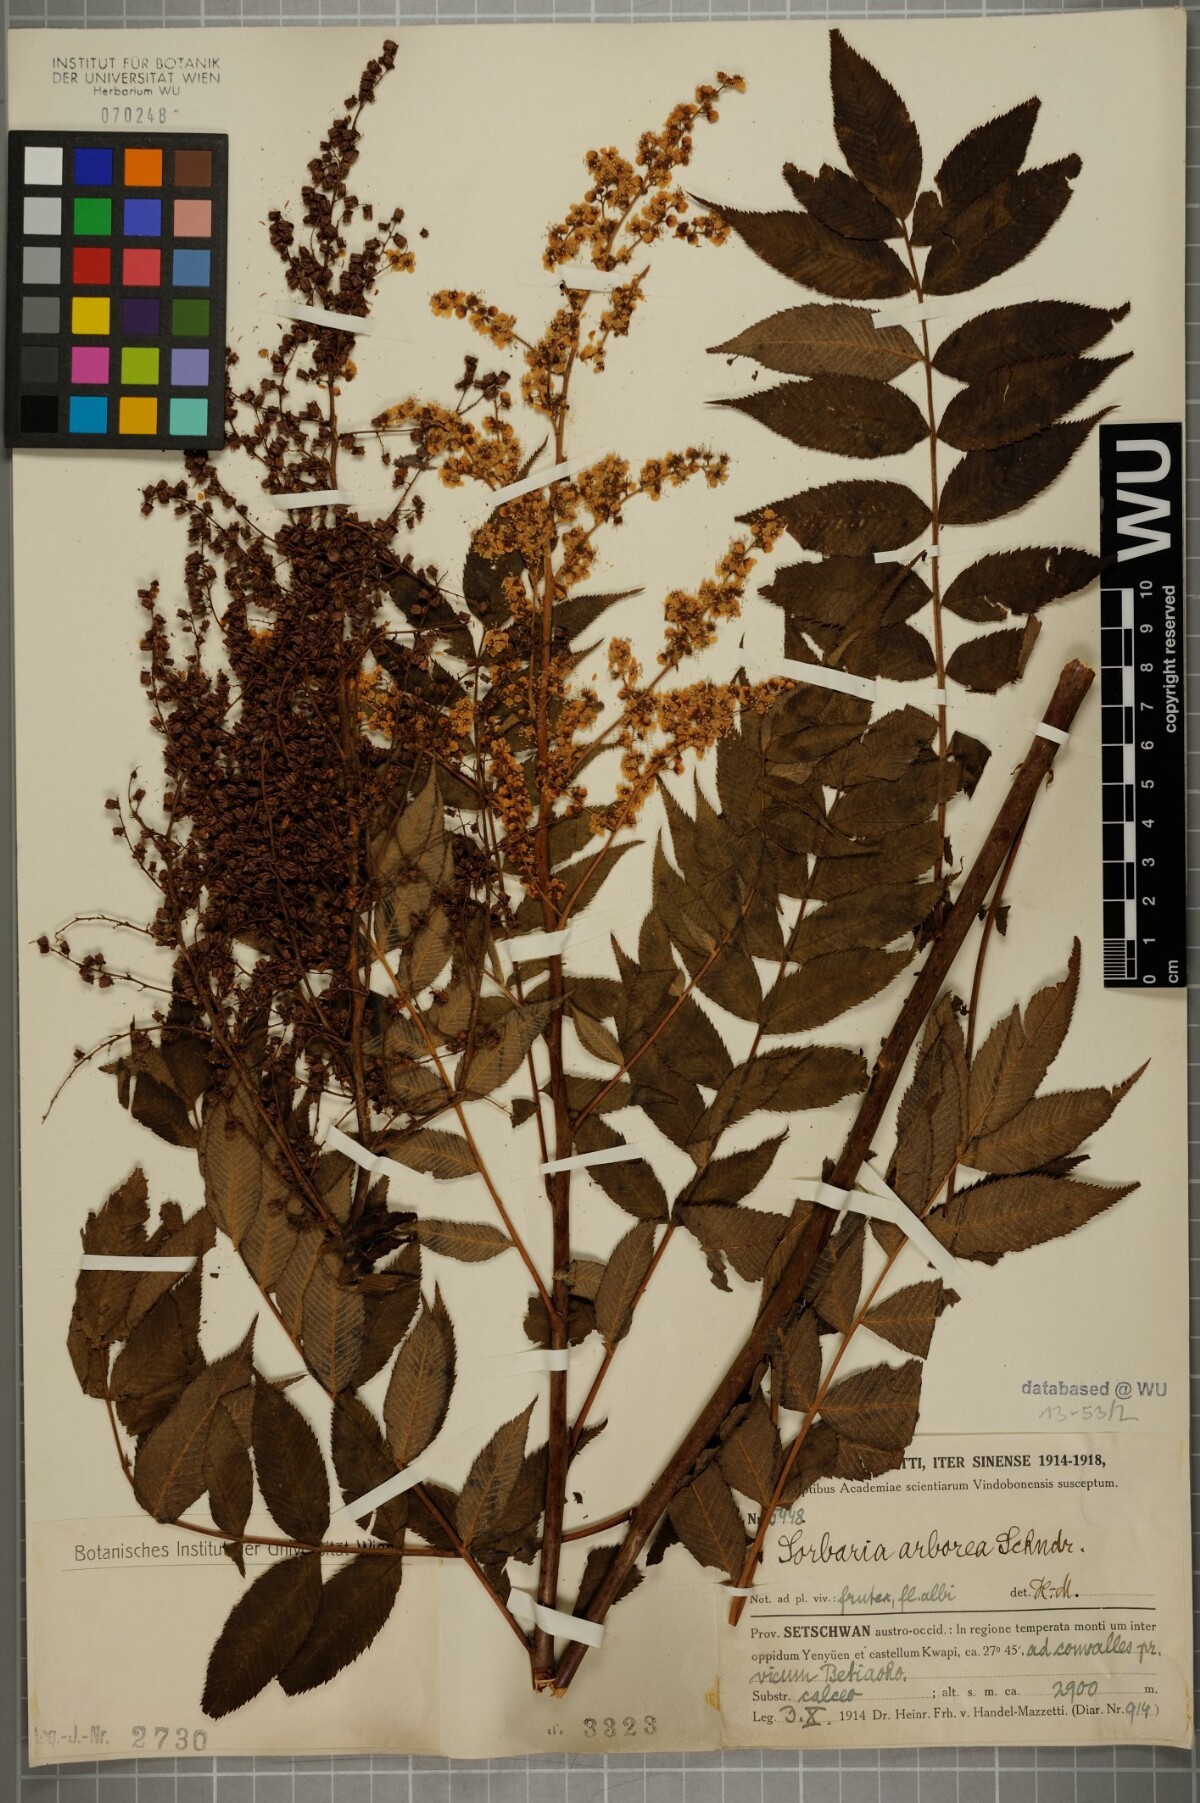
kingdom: Plantae
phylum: Tracheophyta
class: Magnoliopsida
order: Rosales
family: Rosaceae
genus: Sorbaria
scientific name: Sorbaria kirilowii
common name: Chinese sorbaria
